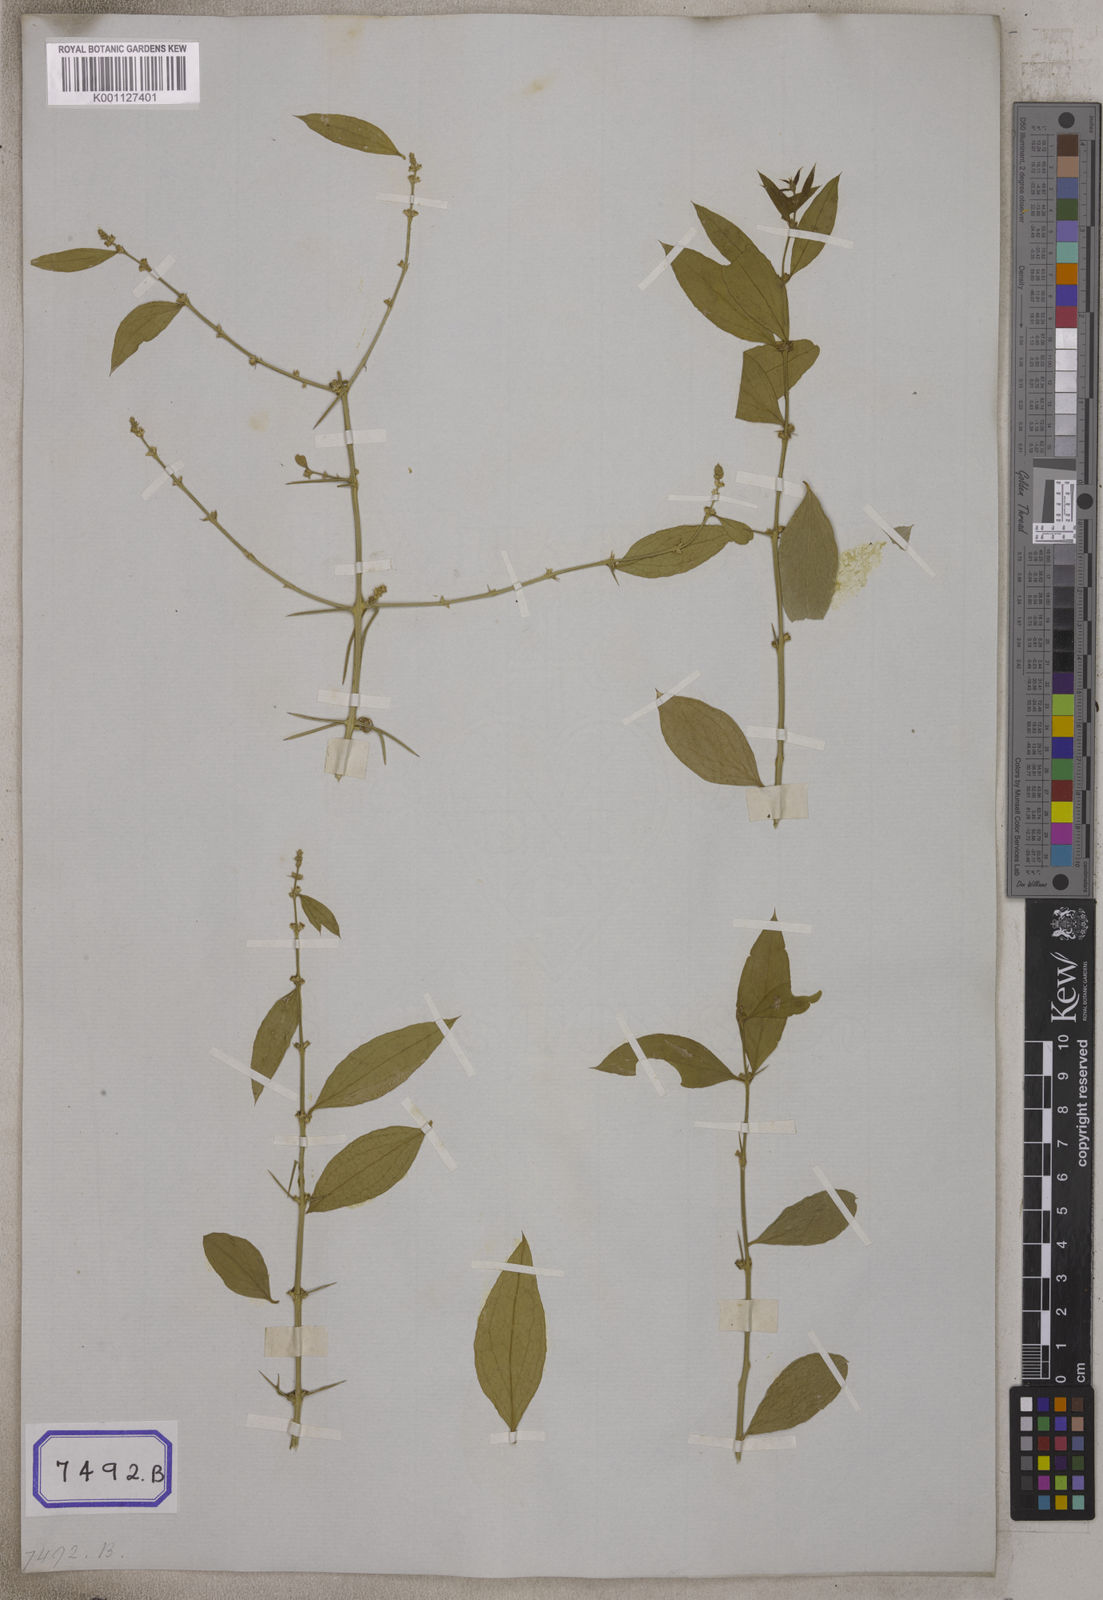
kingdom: Plantae
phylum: Tracheophyta
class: Magnoliopsida
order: Brassicales
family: Salvadoraceae
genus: Azima
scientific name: Azima
